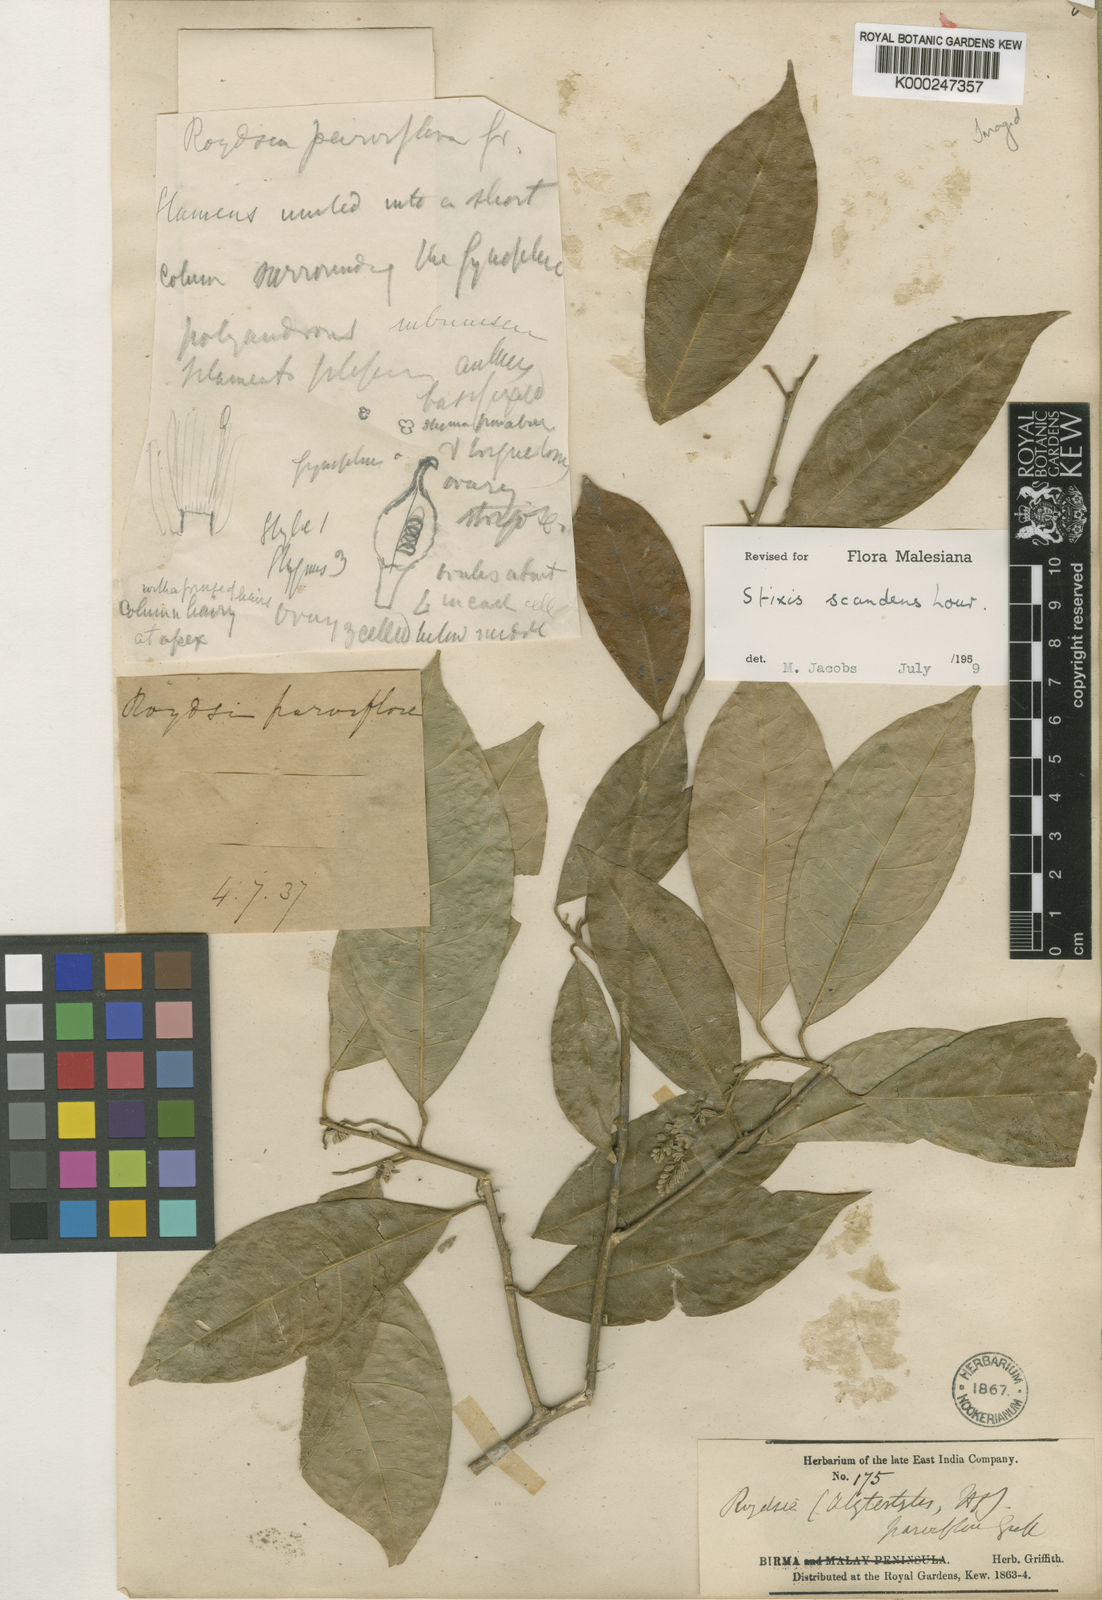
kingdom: Plantae
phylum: Tracheophyta
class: Magnoliopsida
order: Brassicales
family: Stixaceae
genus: Stixis
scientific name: Stixis scandens
